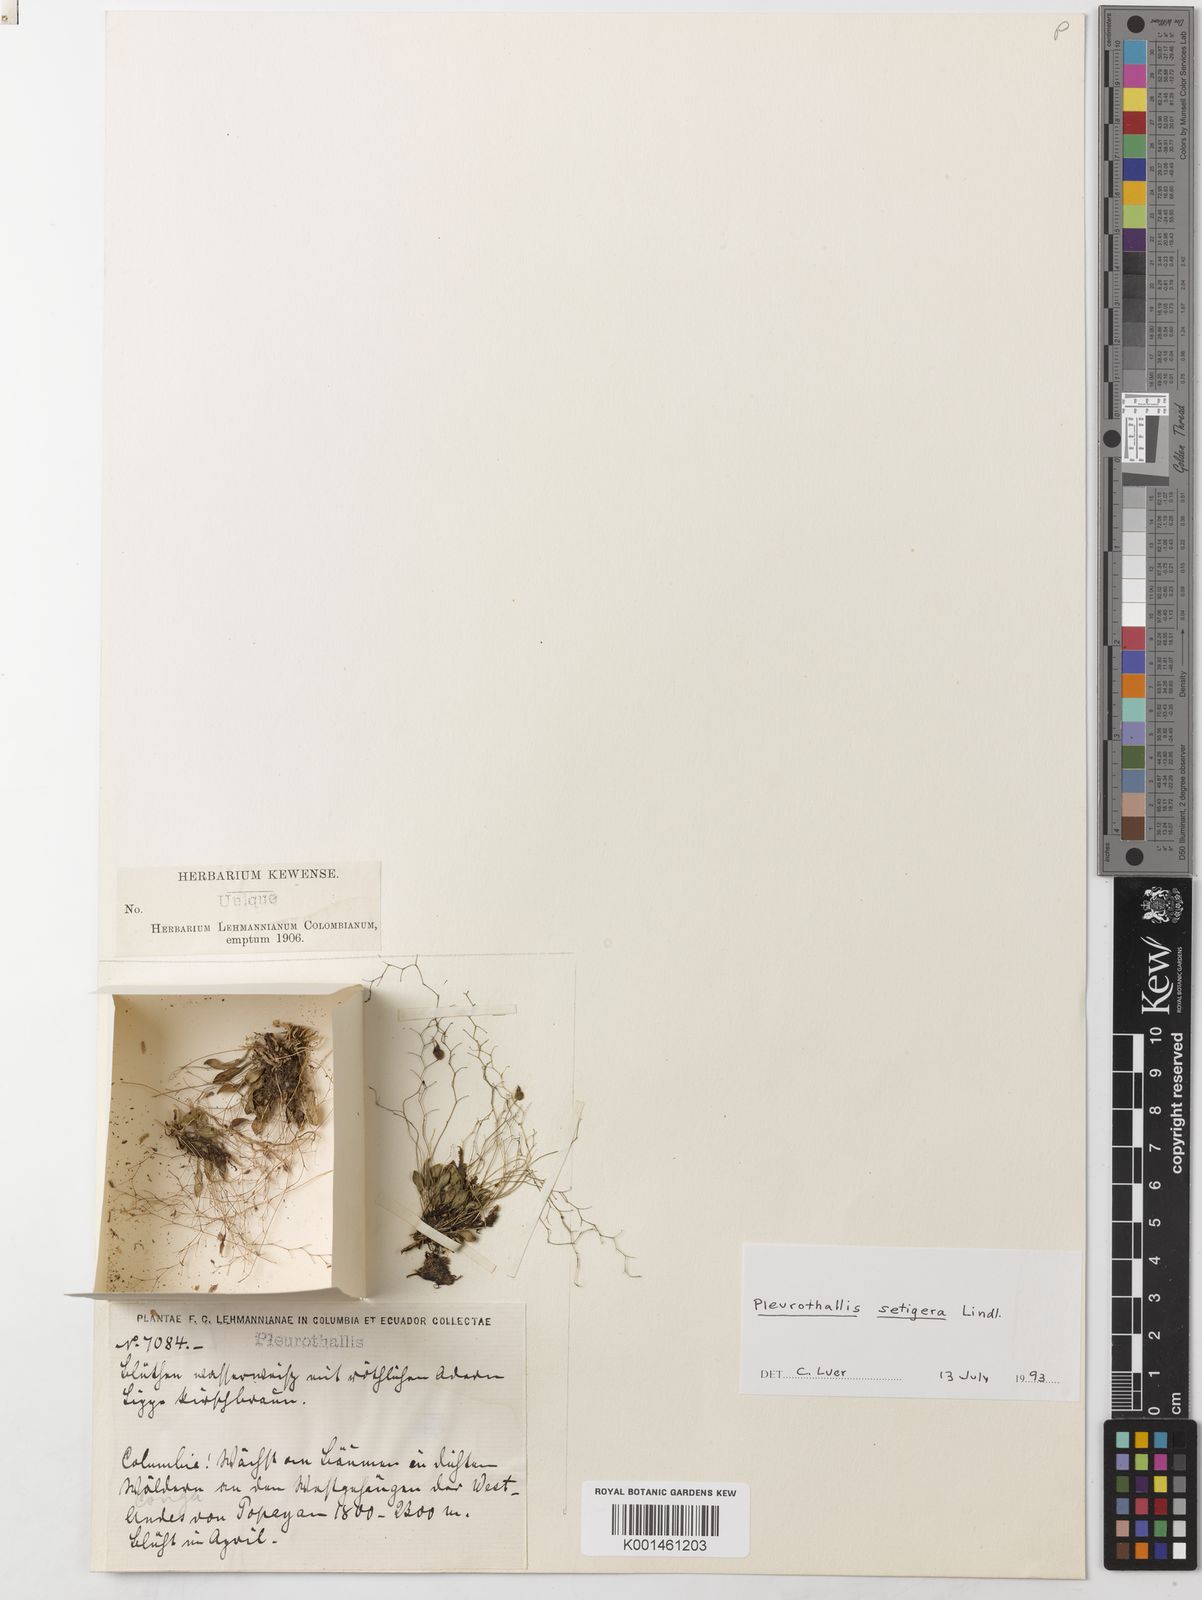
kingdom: Plantae
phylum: Tracheophyta
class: Liliopsida
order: Asparagales
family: Orchidaceae
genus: Muscarella
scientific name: Muscarella zephyrina
